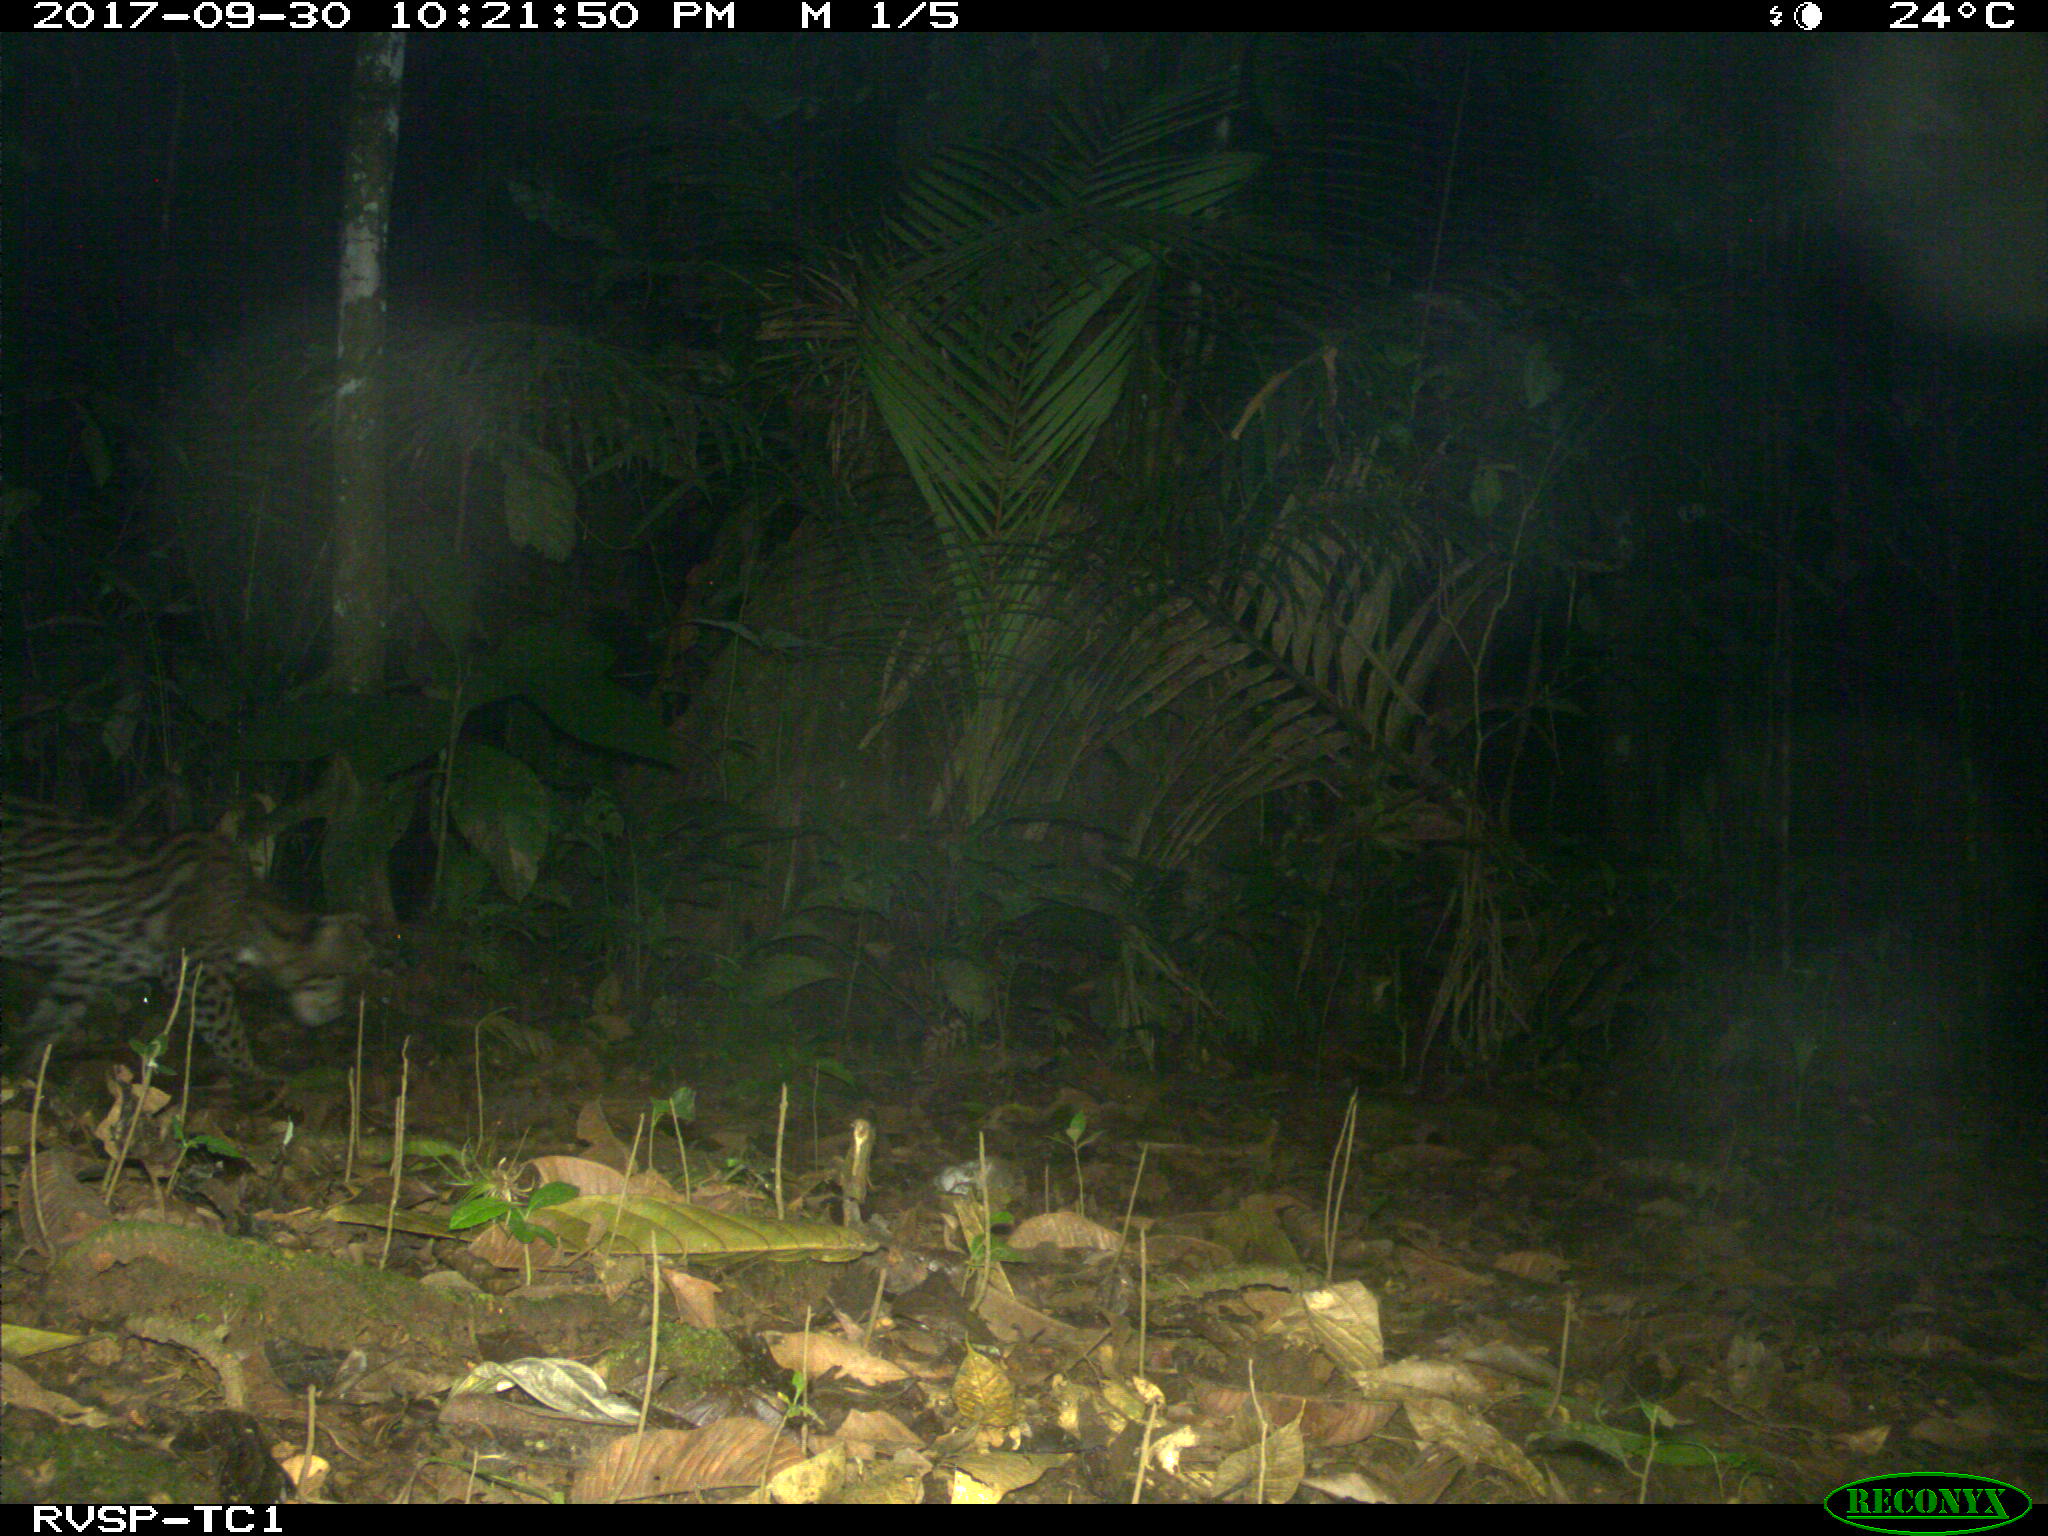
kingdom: Animalia
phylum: Chordata
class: Mammalia
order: Carnivora
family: Felidae
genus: Leopardus
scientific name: Leopardus pardalis
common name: Ocelot
